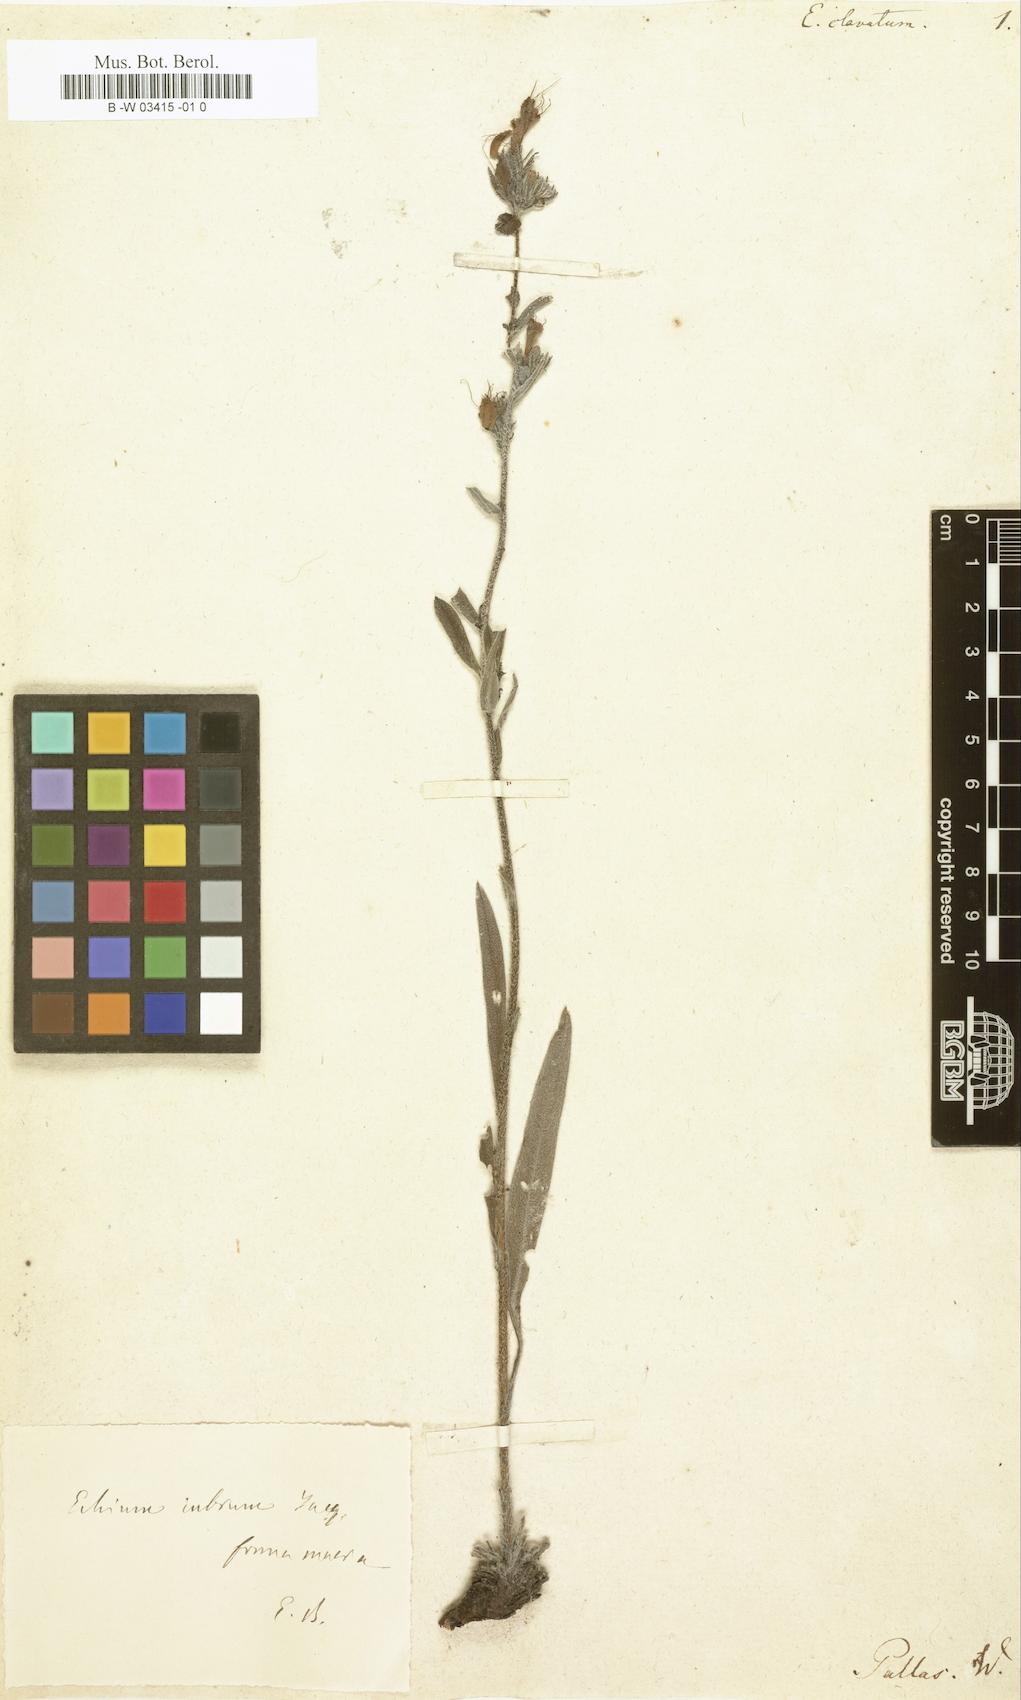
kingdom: Plantae
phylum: Tracheophyta
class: Magnoliopsida
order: Boraginales
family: Boraginaceae
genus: Pontechium
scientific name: Pontechium maculatum
